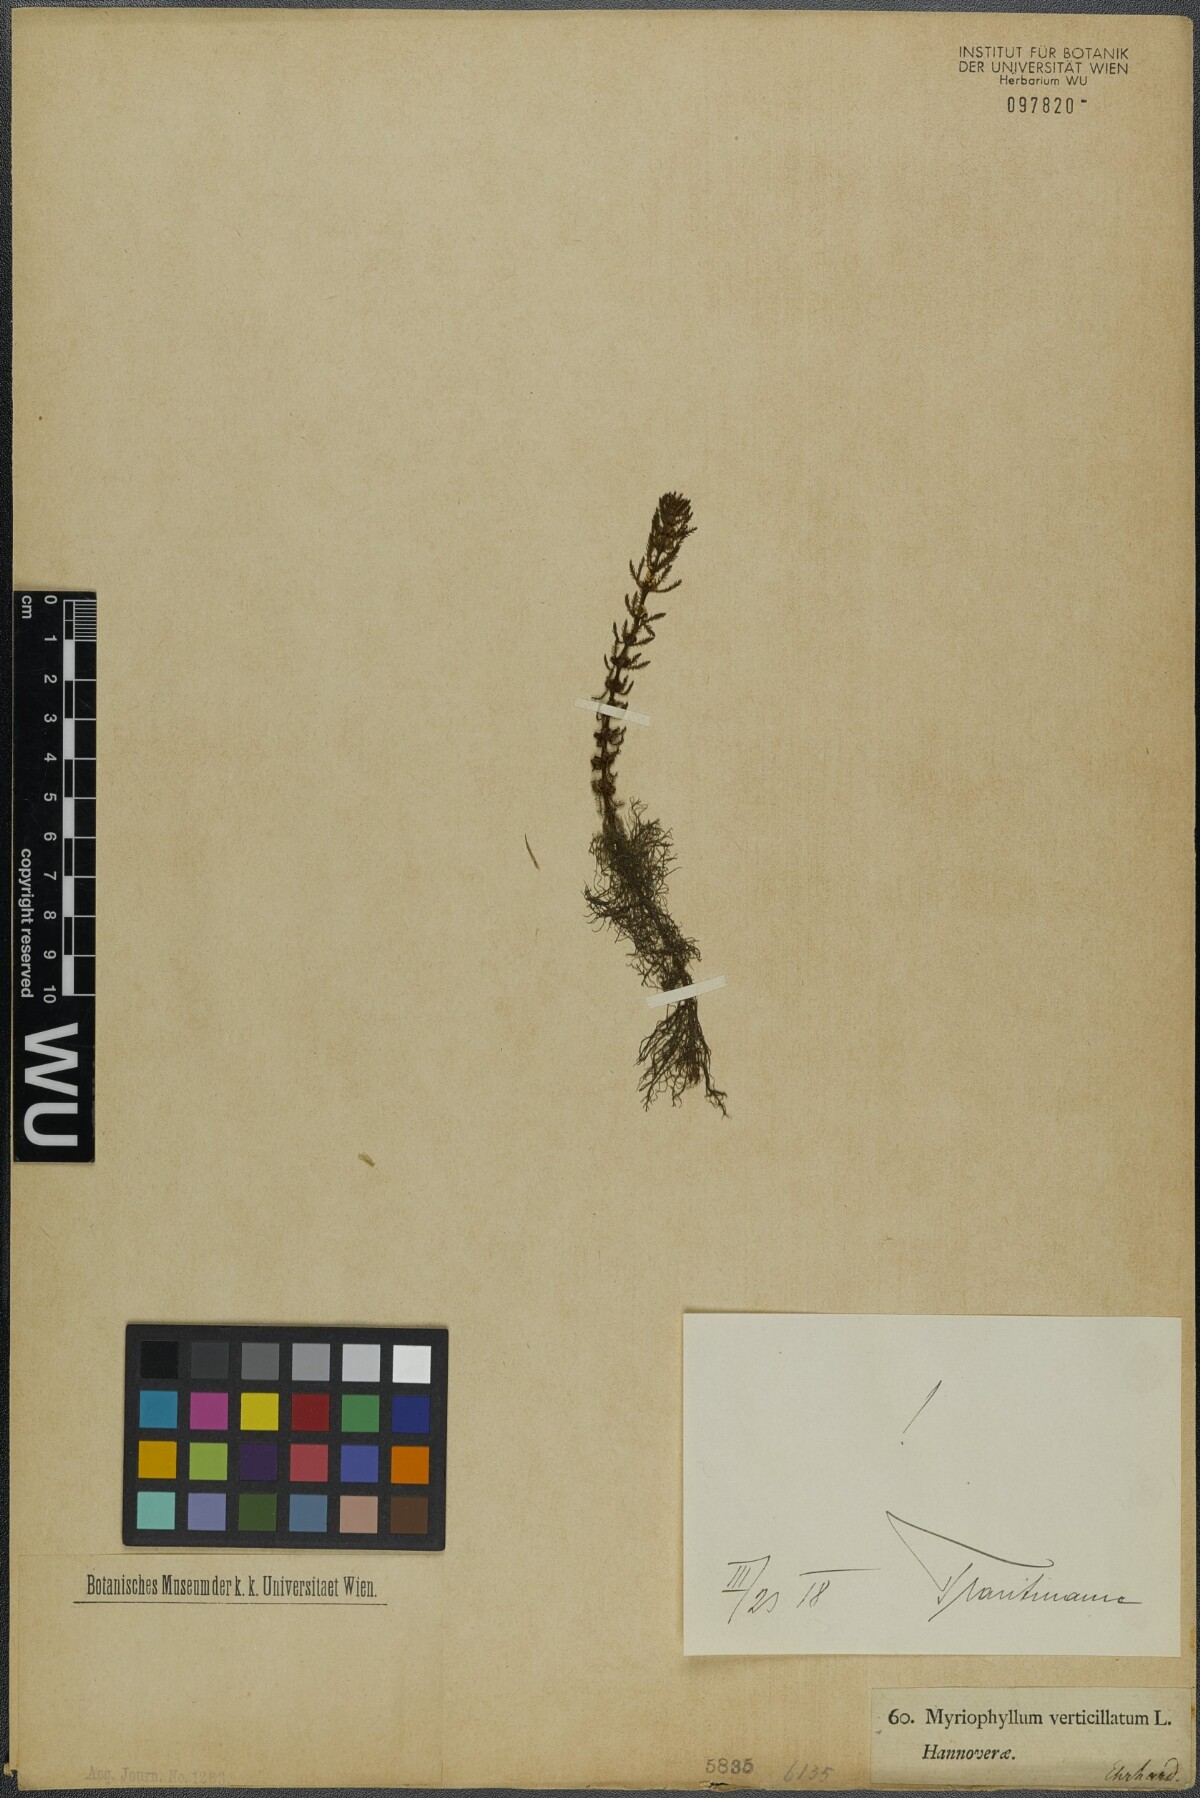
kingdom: Plantae
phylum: Tracheophyta
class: Magnoliopsida
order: Saxifragales
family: Haloragaceae
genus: Myriophyllum
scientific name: Myriophyllum verticillatum
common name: Whorled water-milfoil
